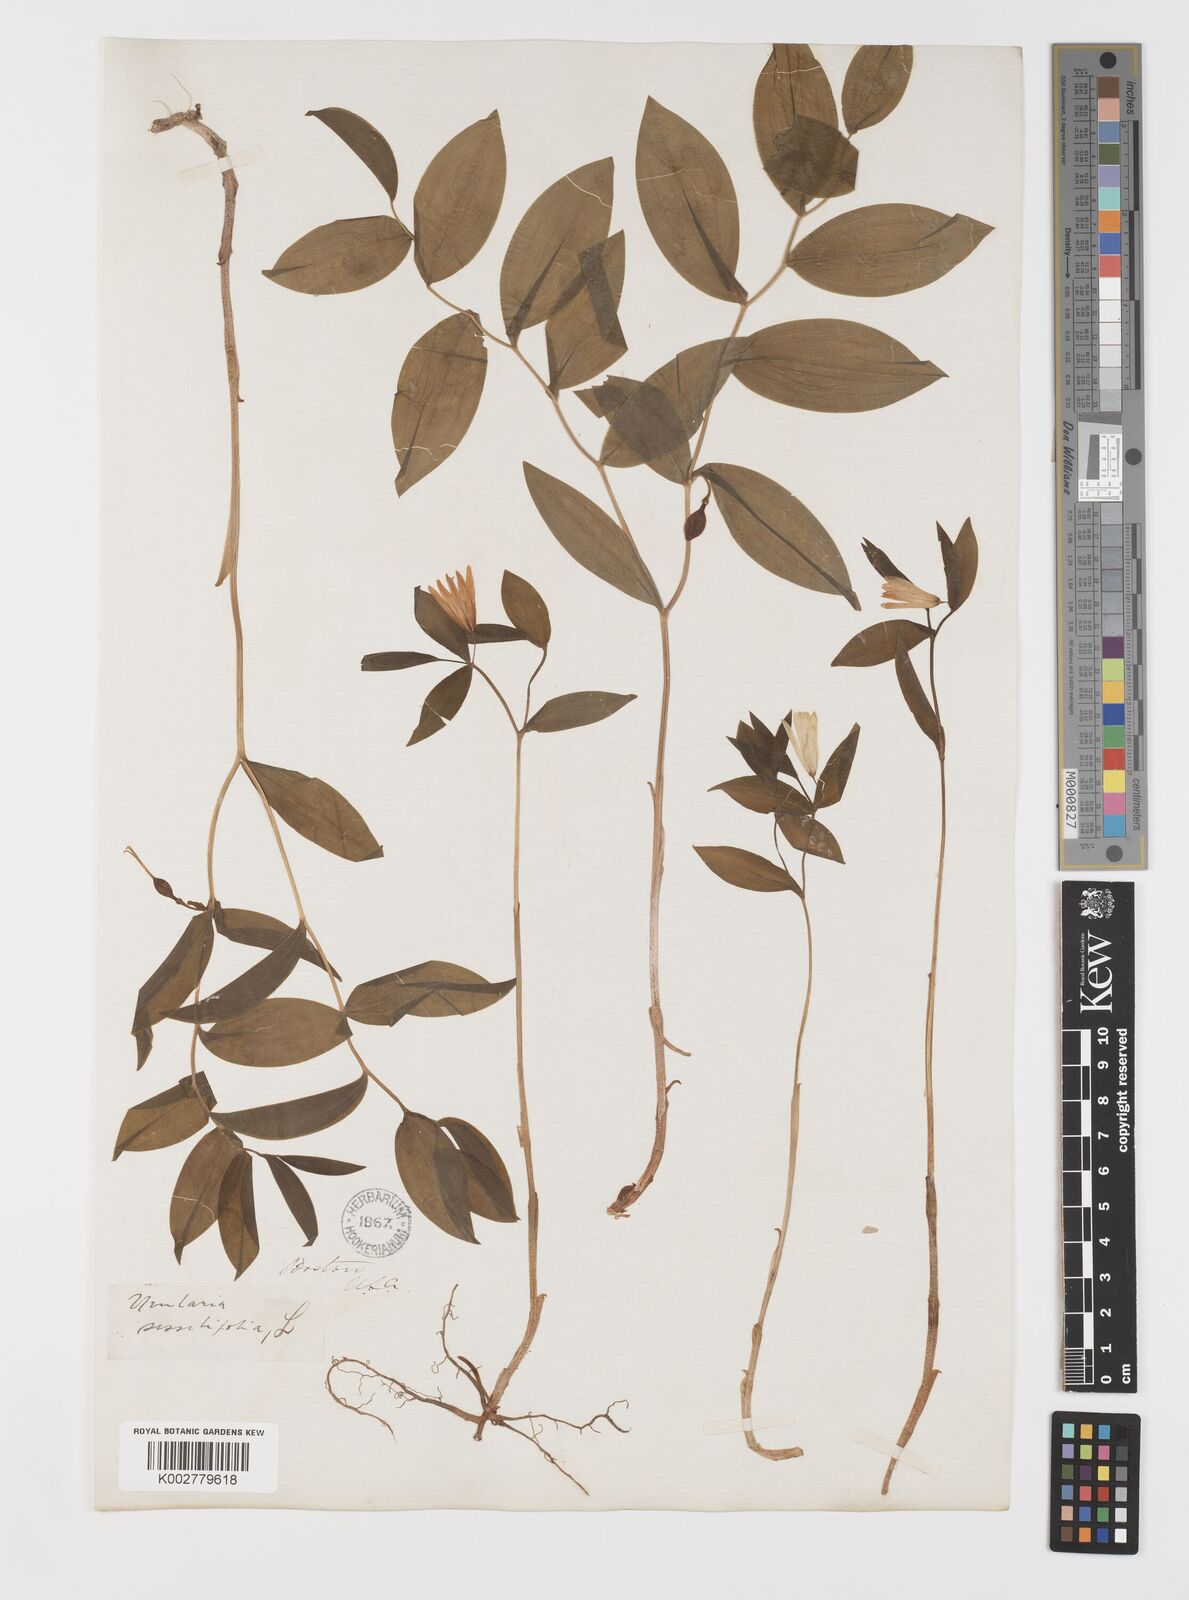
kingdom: Plantae
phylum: Tracheophyta
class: Liliopsida
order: Liliales
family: Colchicaceae
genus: Uvularia
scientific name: Uvularia sessilifolia
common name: Straw-lily
